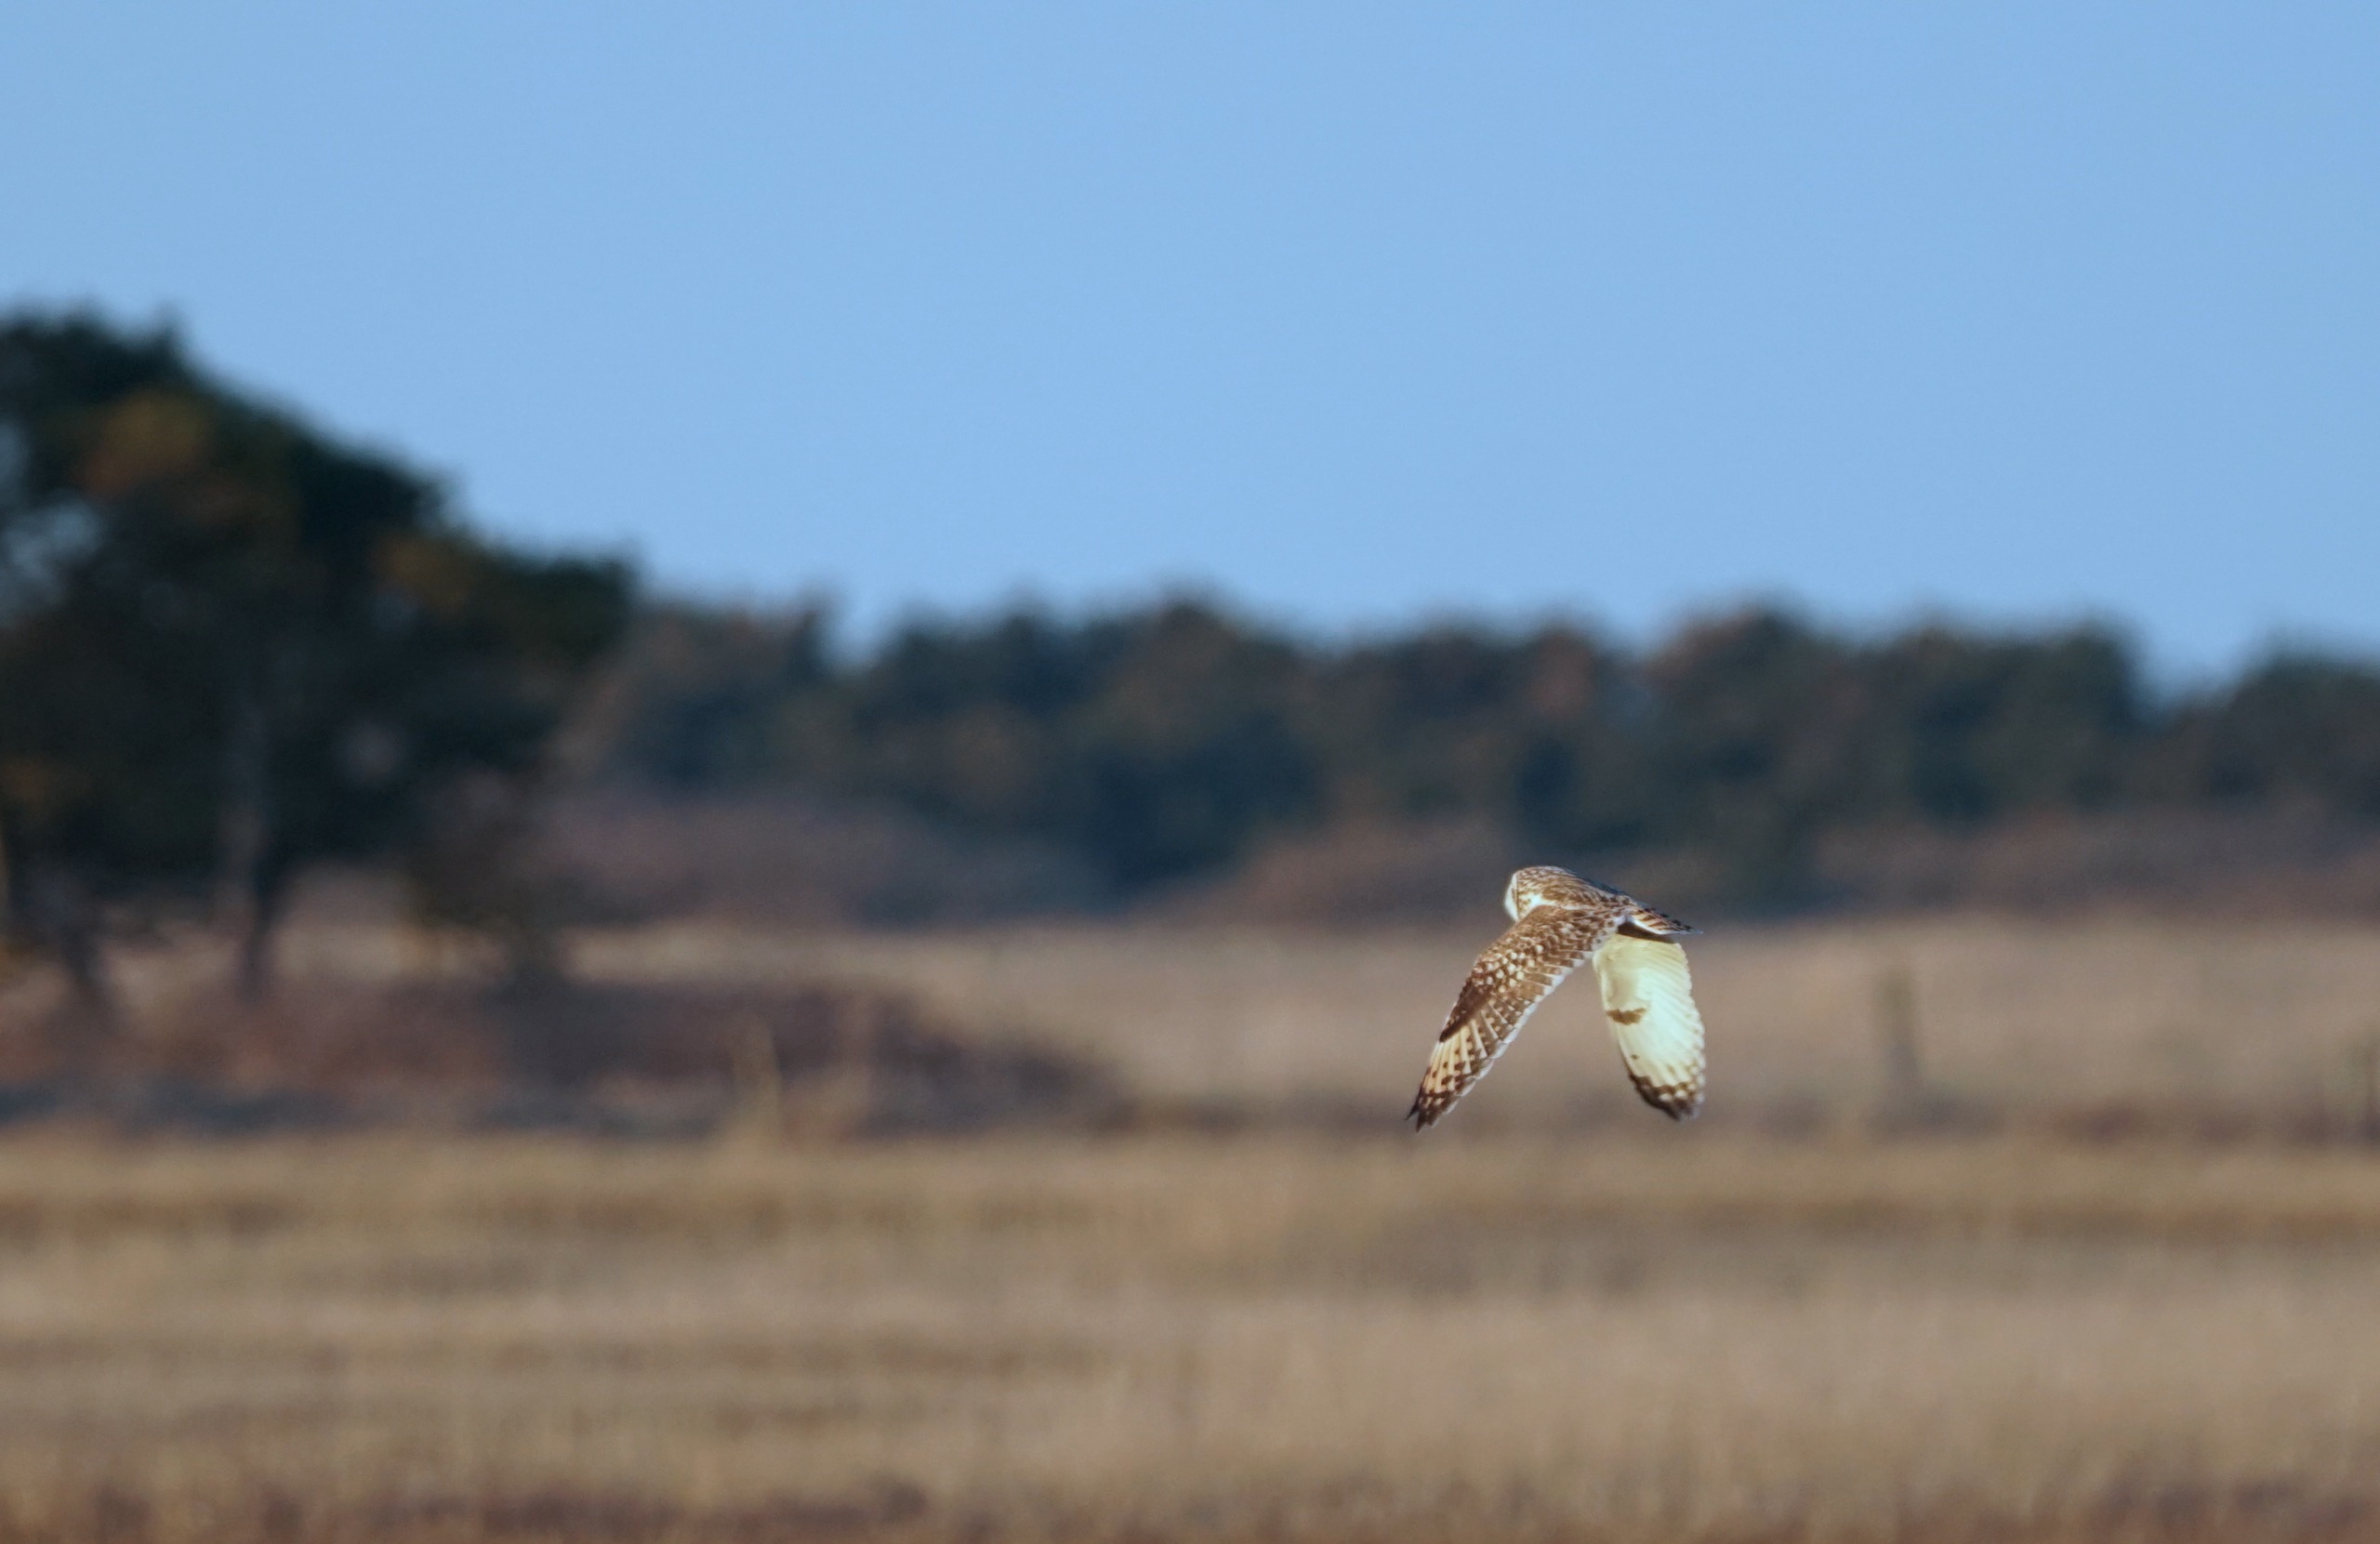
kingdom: Animalia
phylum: Chordata
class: Aves
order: Strigiformes
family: Strigidae
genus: Asio
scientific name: Asio flammeus
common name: Mosehornugle
